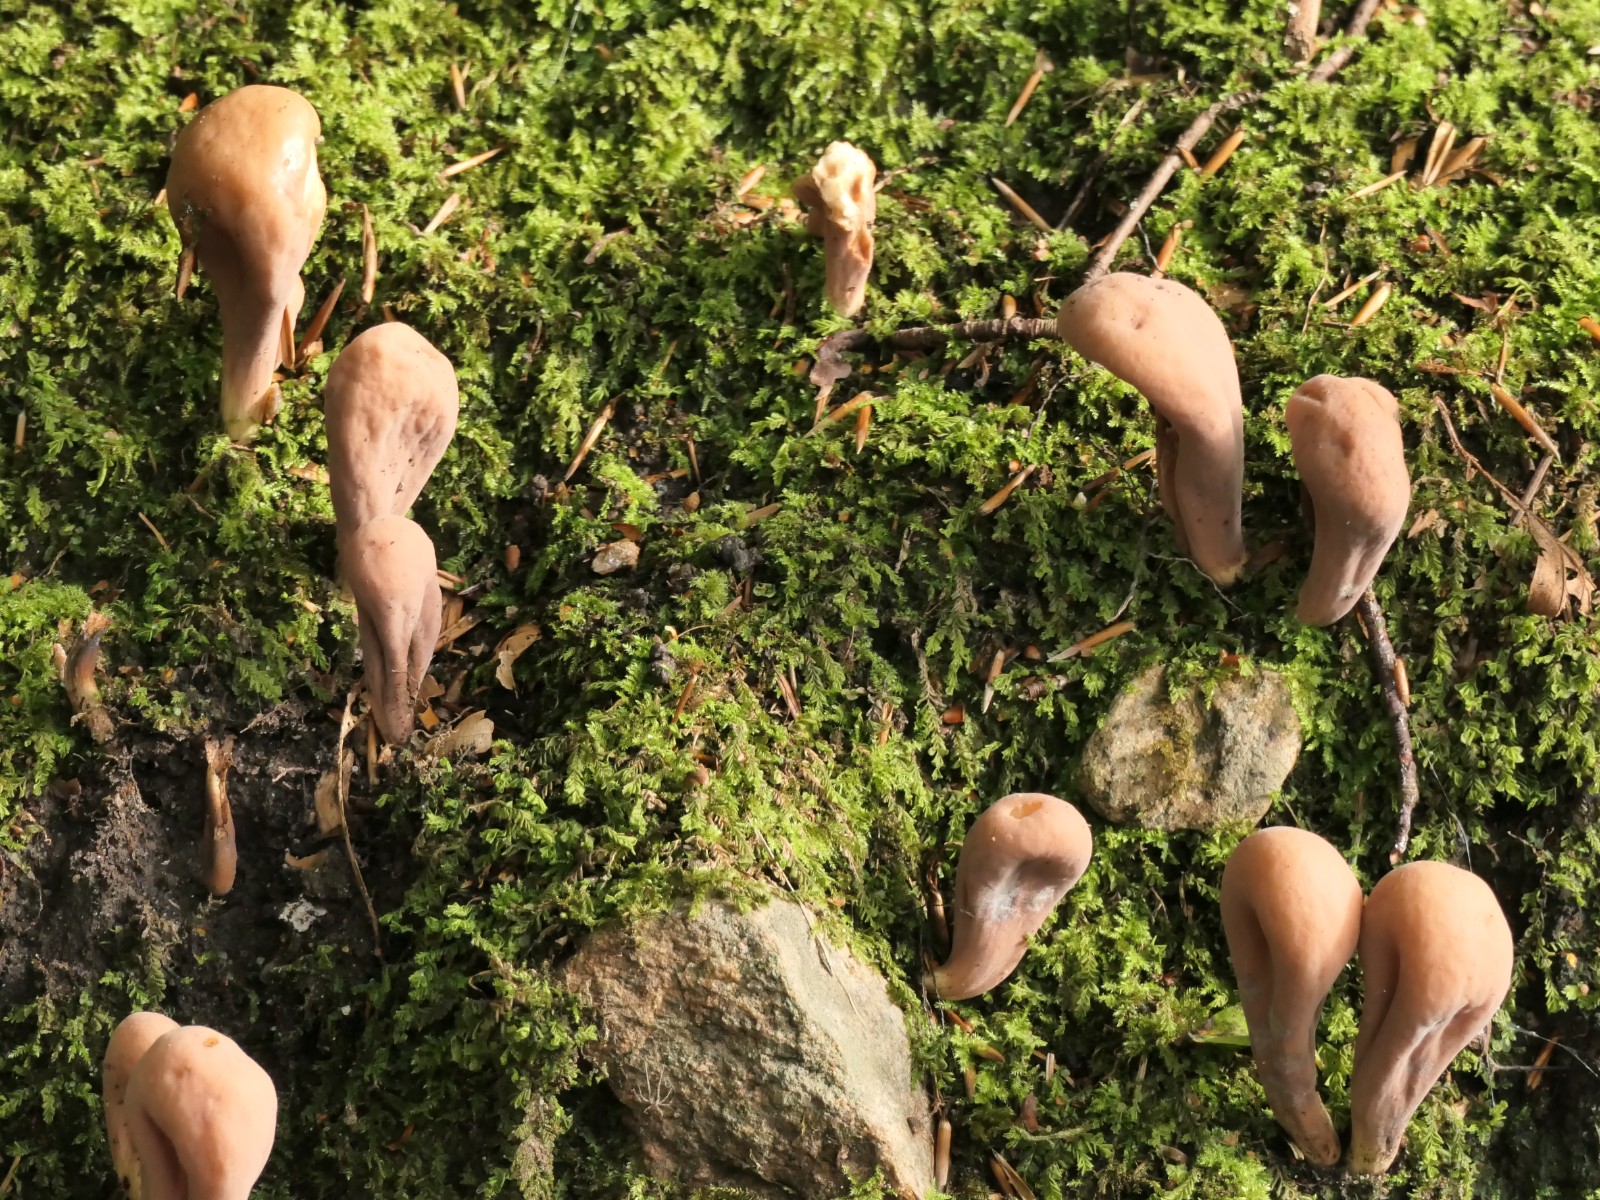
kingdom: Fungi
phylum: Basidiomycota
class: Agaricomycetes
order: Gomphales
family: Clavariadelphaceae
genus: Clavariadelphus
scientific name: Clavariadelphus pistillaris
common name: herkules-kæmpekølle
